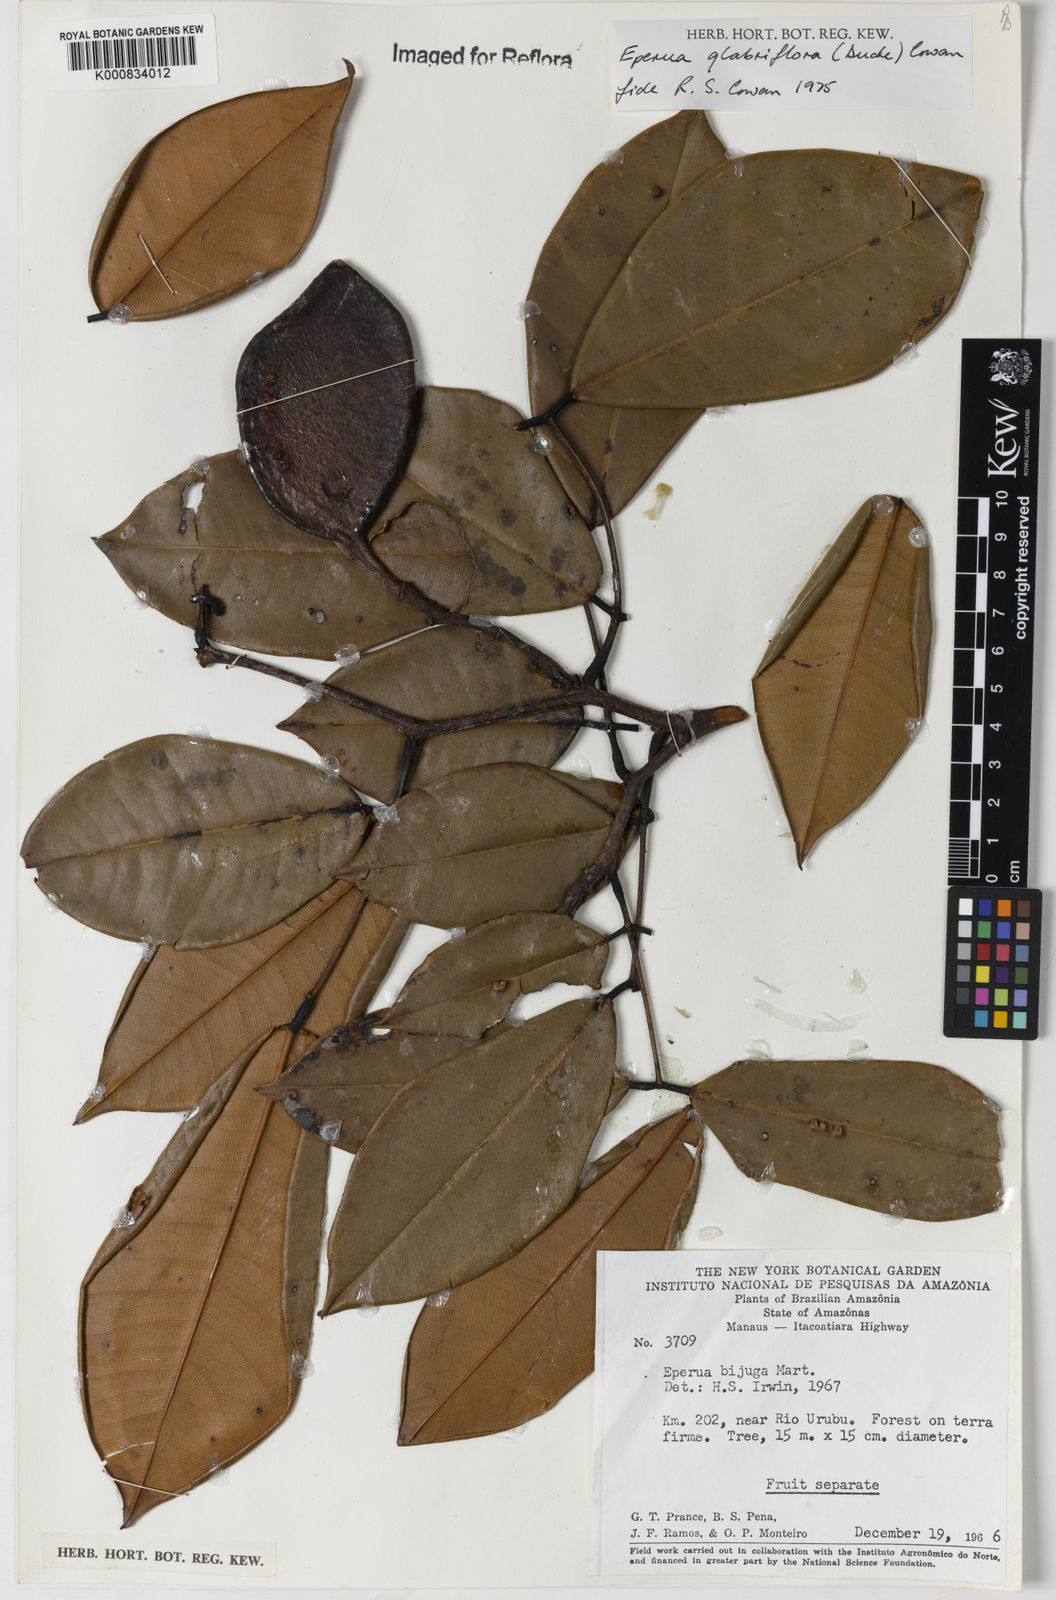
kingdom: Plantae
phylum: Tracheophyta
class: Magnoliopsida
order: Fabales
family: Fabaceae
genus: Eperua
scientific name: Eperua glabriflora
